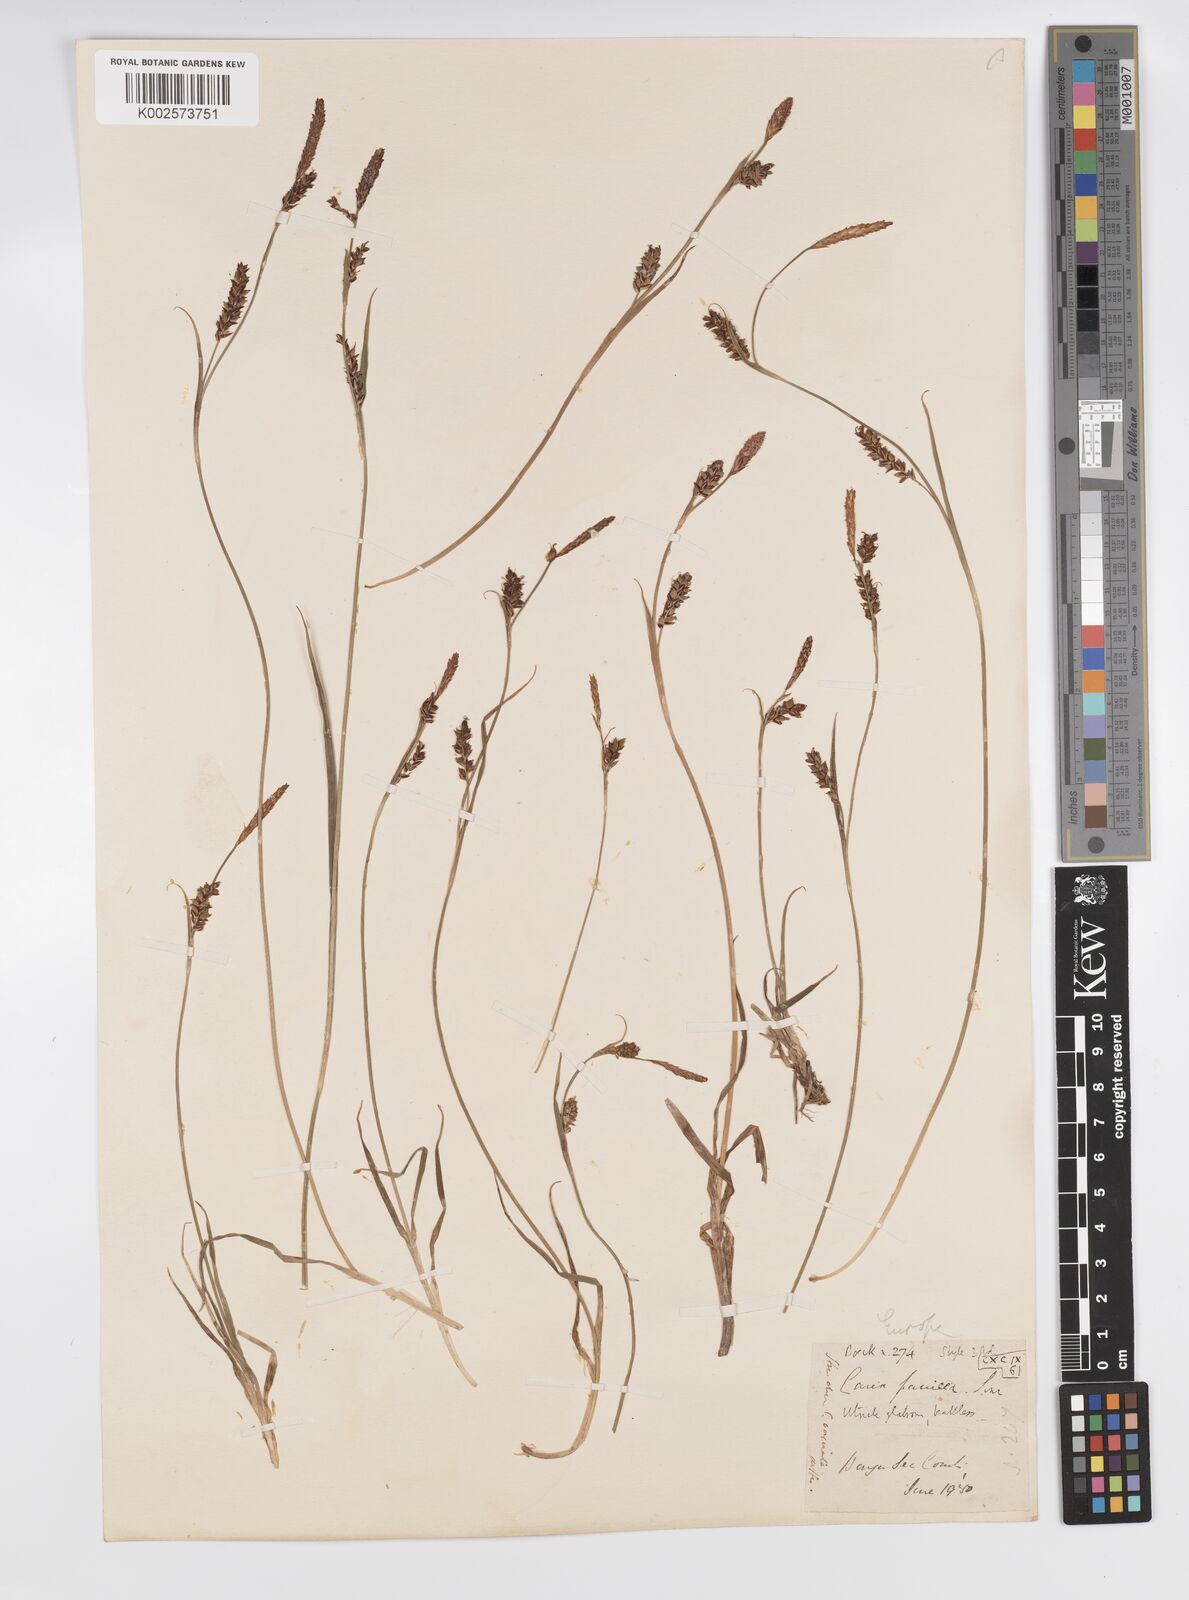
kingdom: Plantae
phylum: Tracheophyta
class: Liliopsida
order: Poales
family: Cyperaceae
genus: Carex
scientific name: Carex panicea
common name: Carnation sedge
